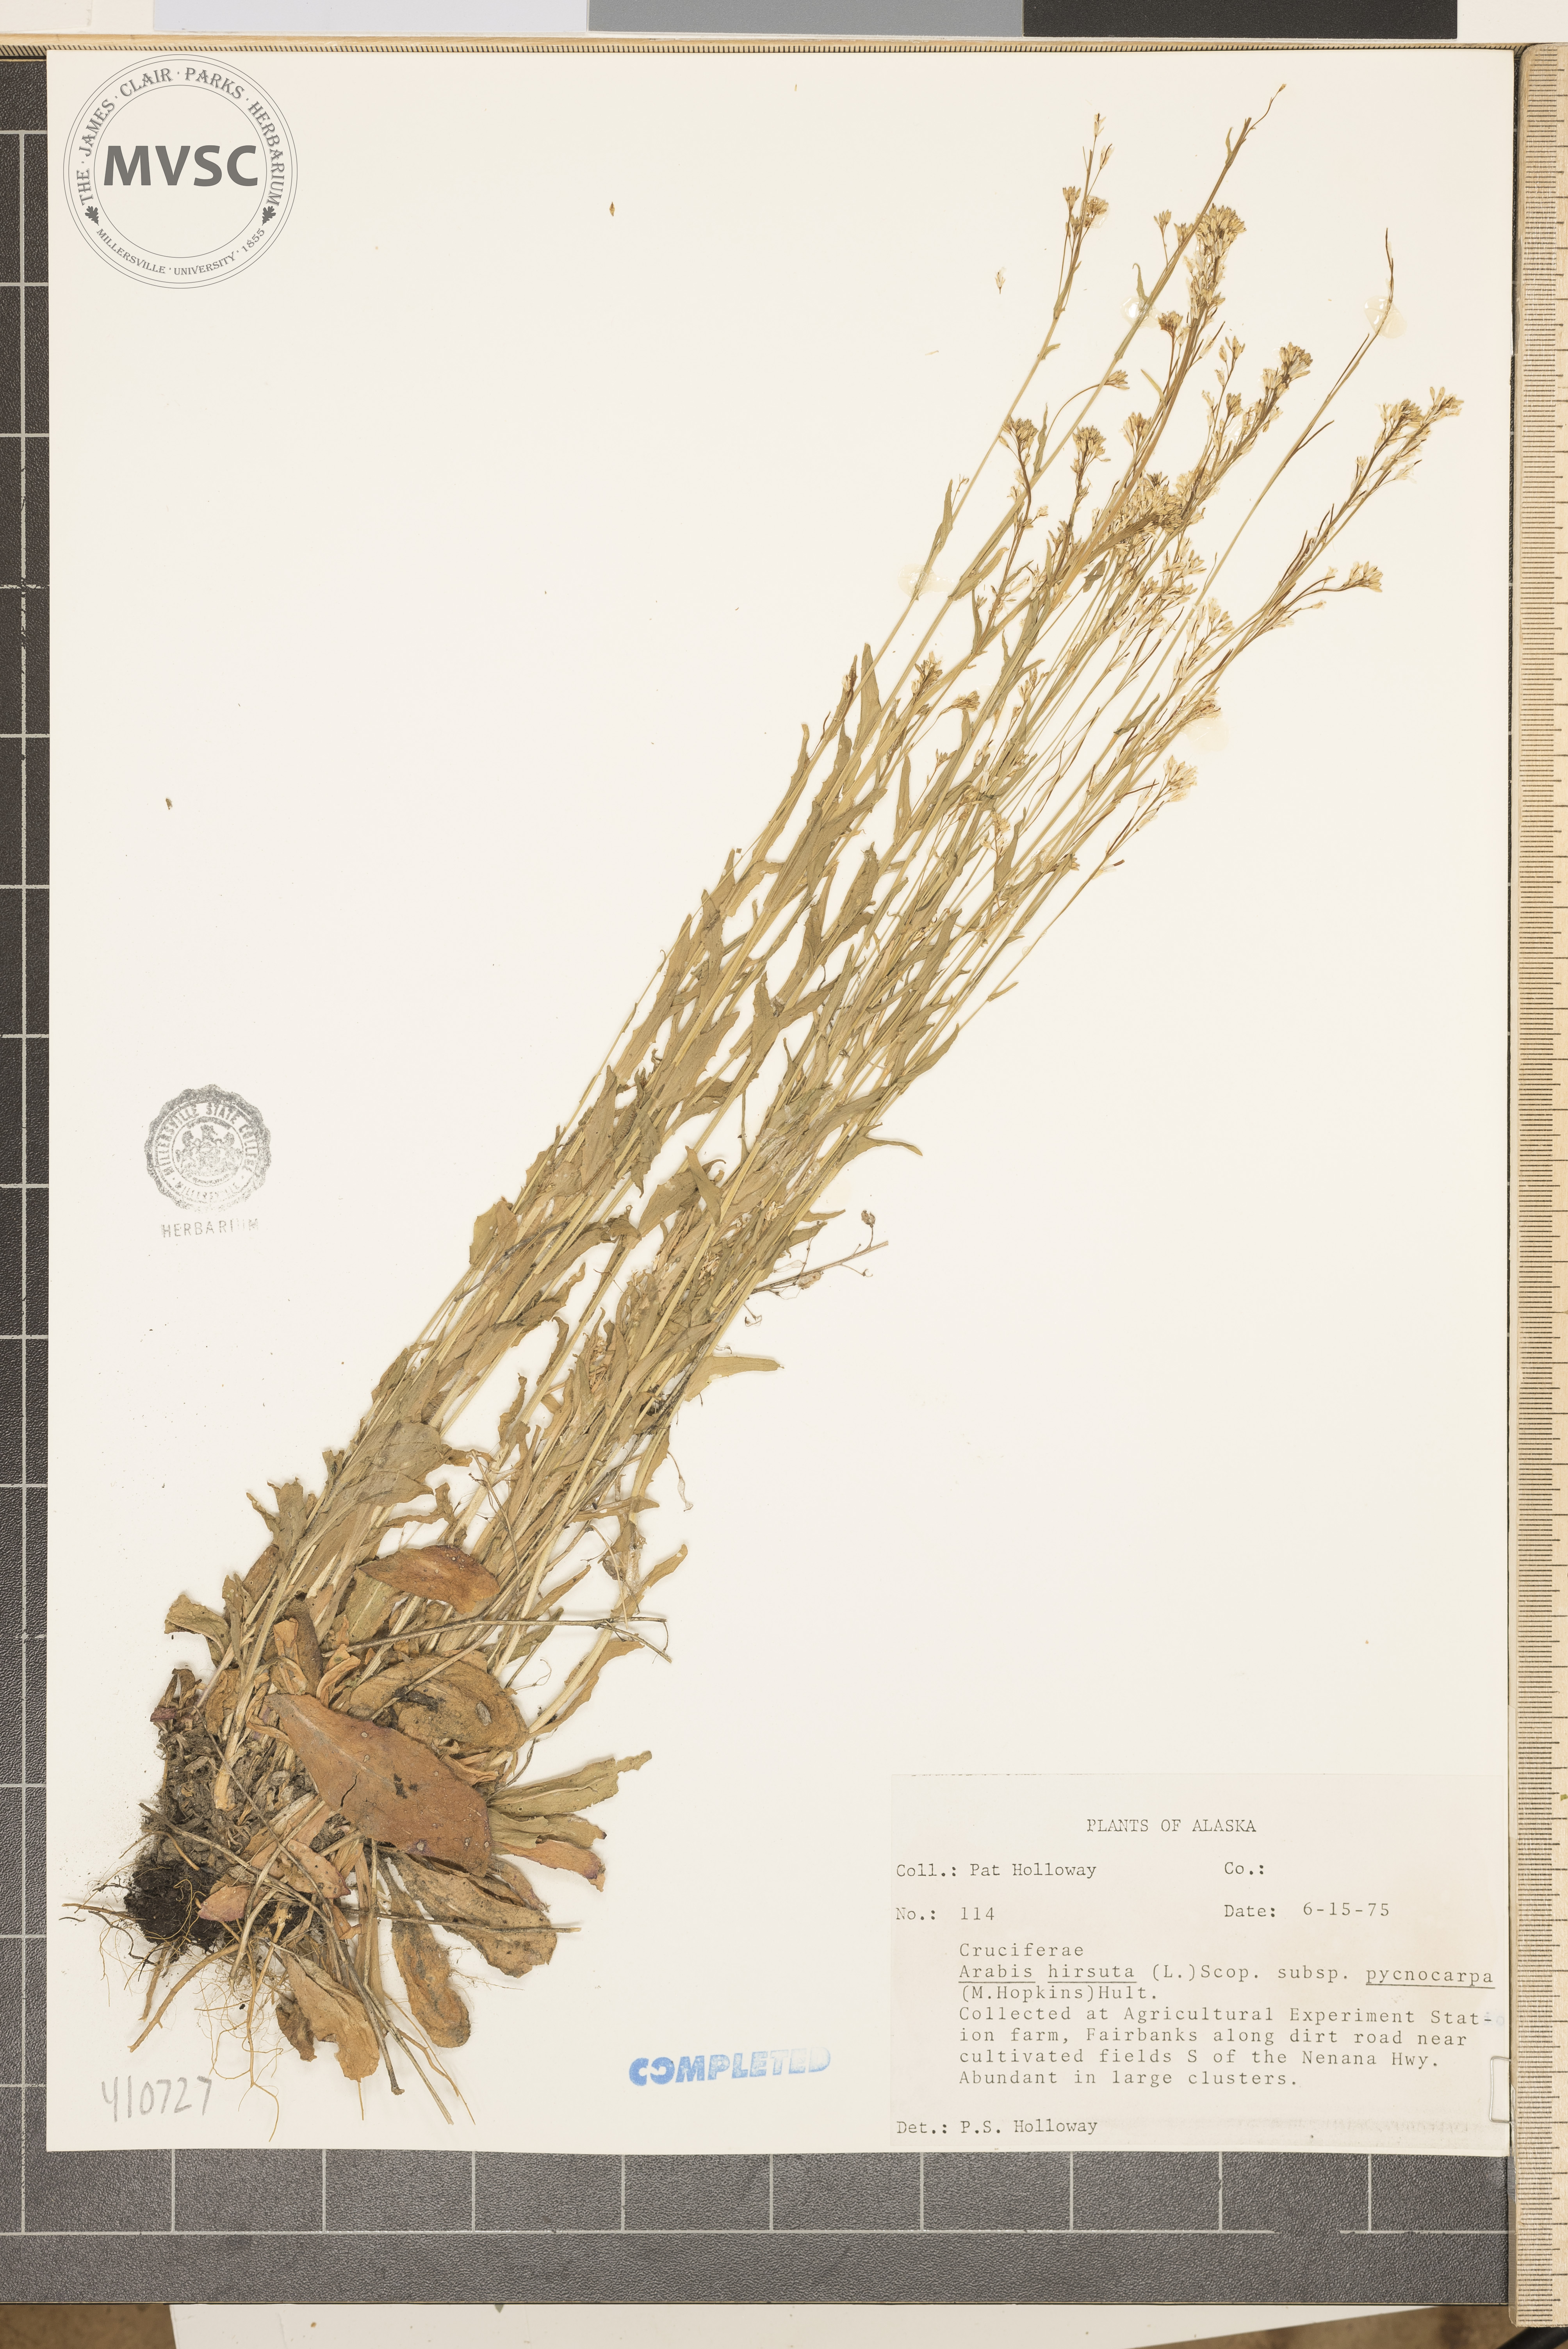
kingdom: Plantae
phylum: Tracheophyta
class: Magnoliopsida
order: Brassicales
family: Brassicaceae
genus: Arabis
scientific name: Arabis hirsuta
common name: Hairy rock-cress
